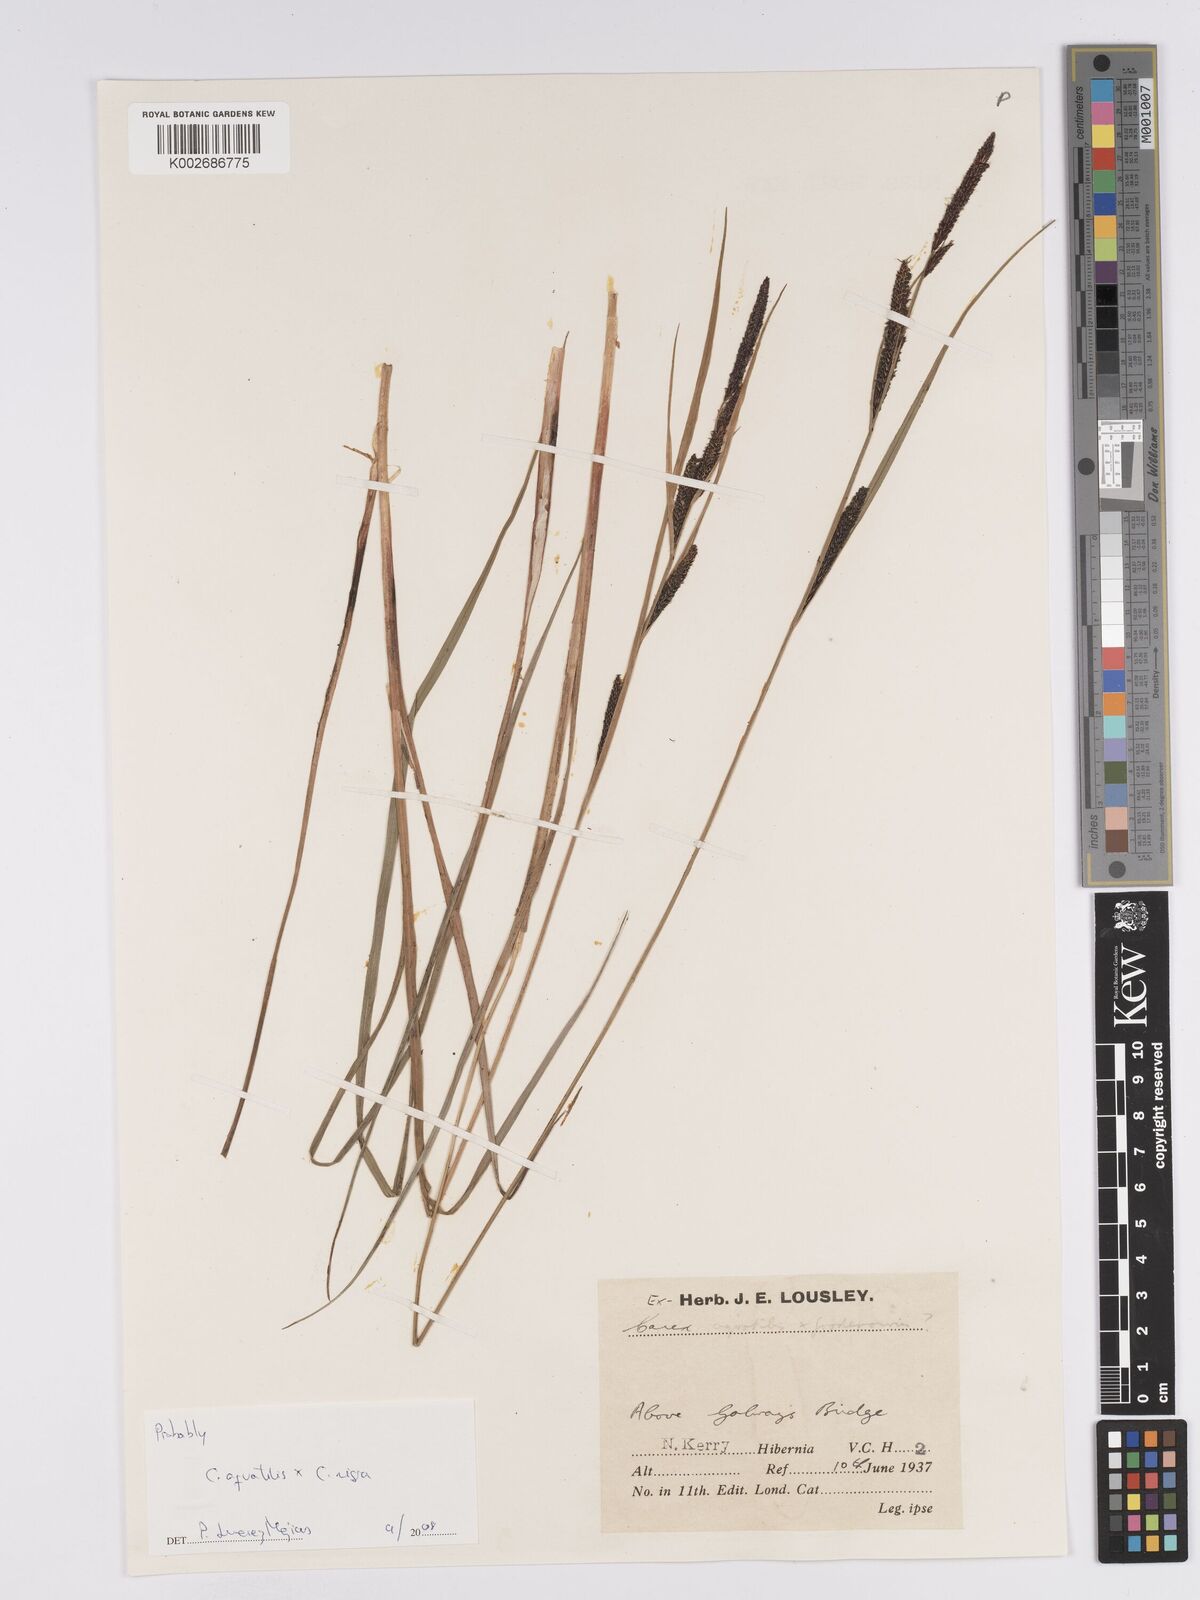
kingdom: Plantae
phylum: Tracheophyta
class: Liliopsida
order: Poales
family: Cyperaceae
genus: Carex
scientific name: Carex microcarpa
